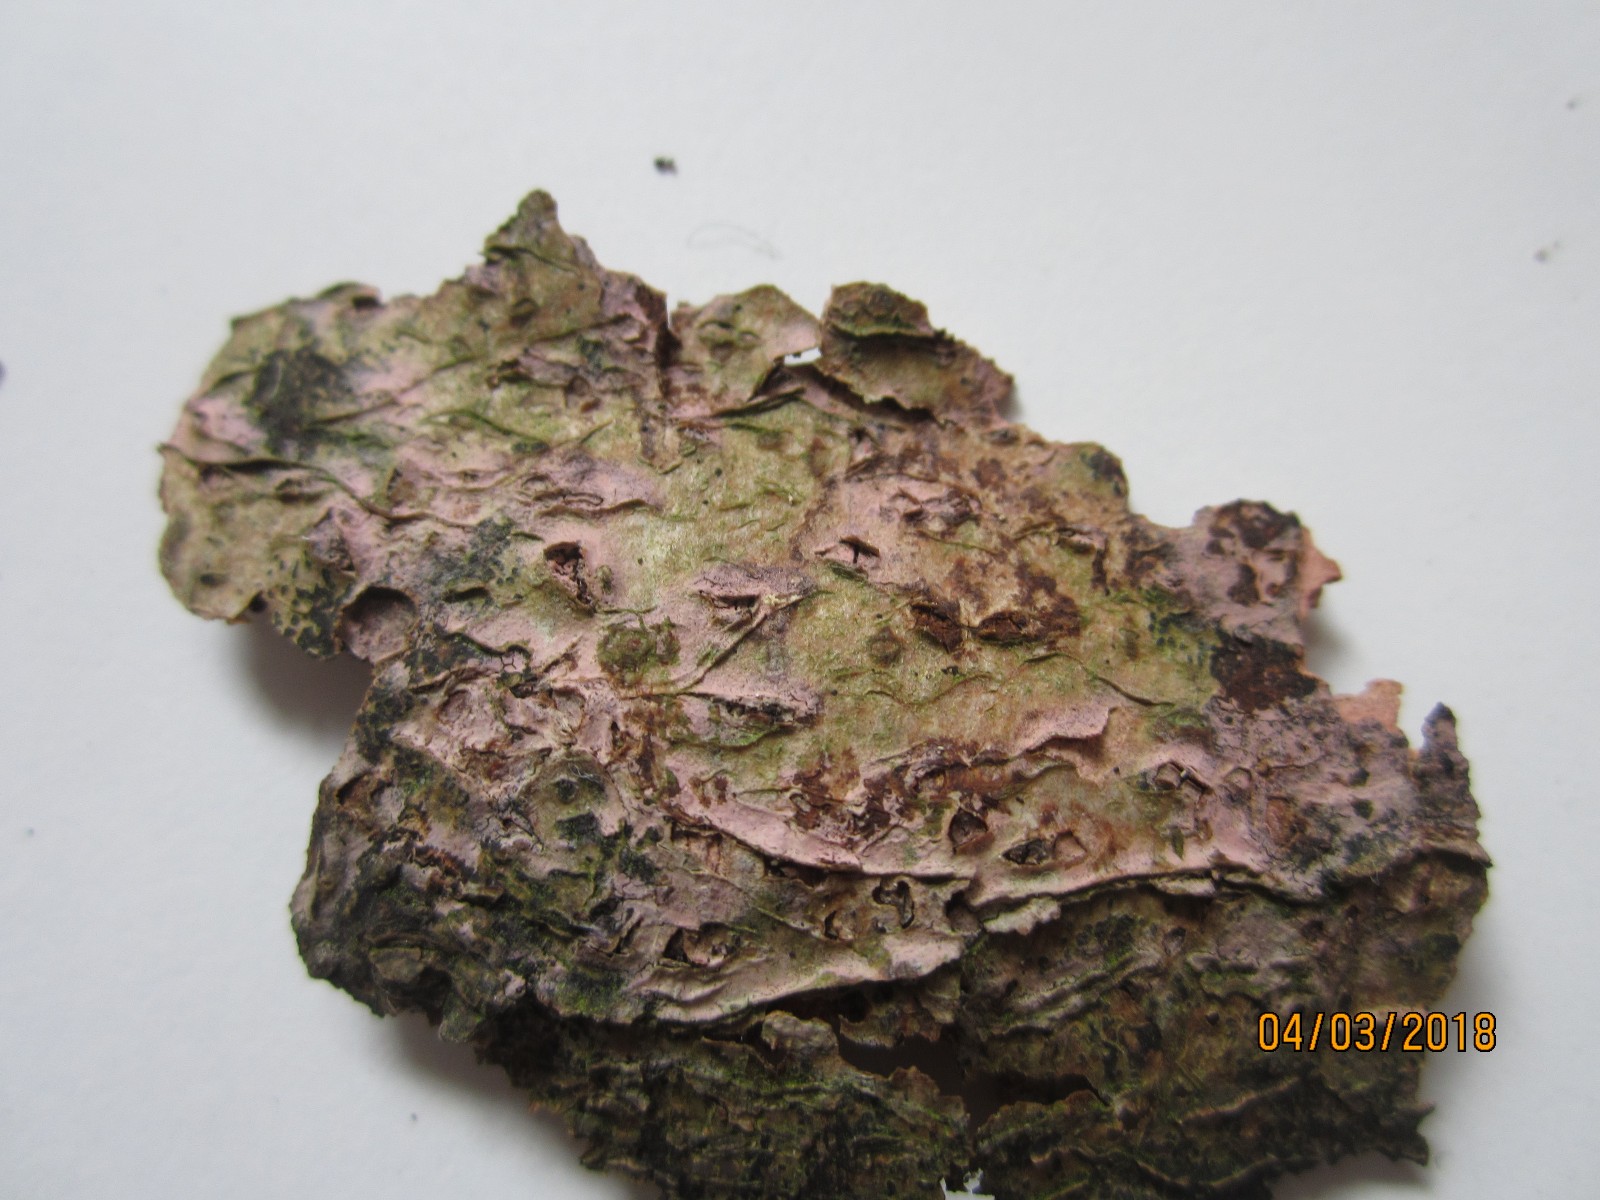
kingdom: Fungi
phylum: Basidiomycota
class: Agaricomycetes
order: Cantharellales
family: Tulasnellaceae
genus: Tulasnella
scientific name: Tulasnella violea
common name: violet ballonhinde
